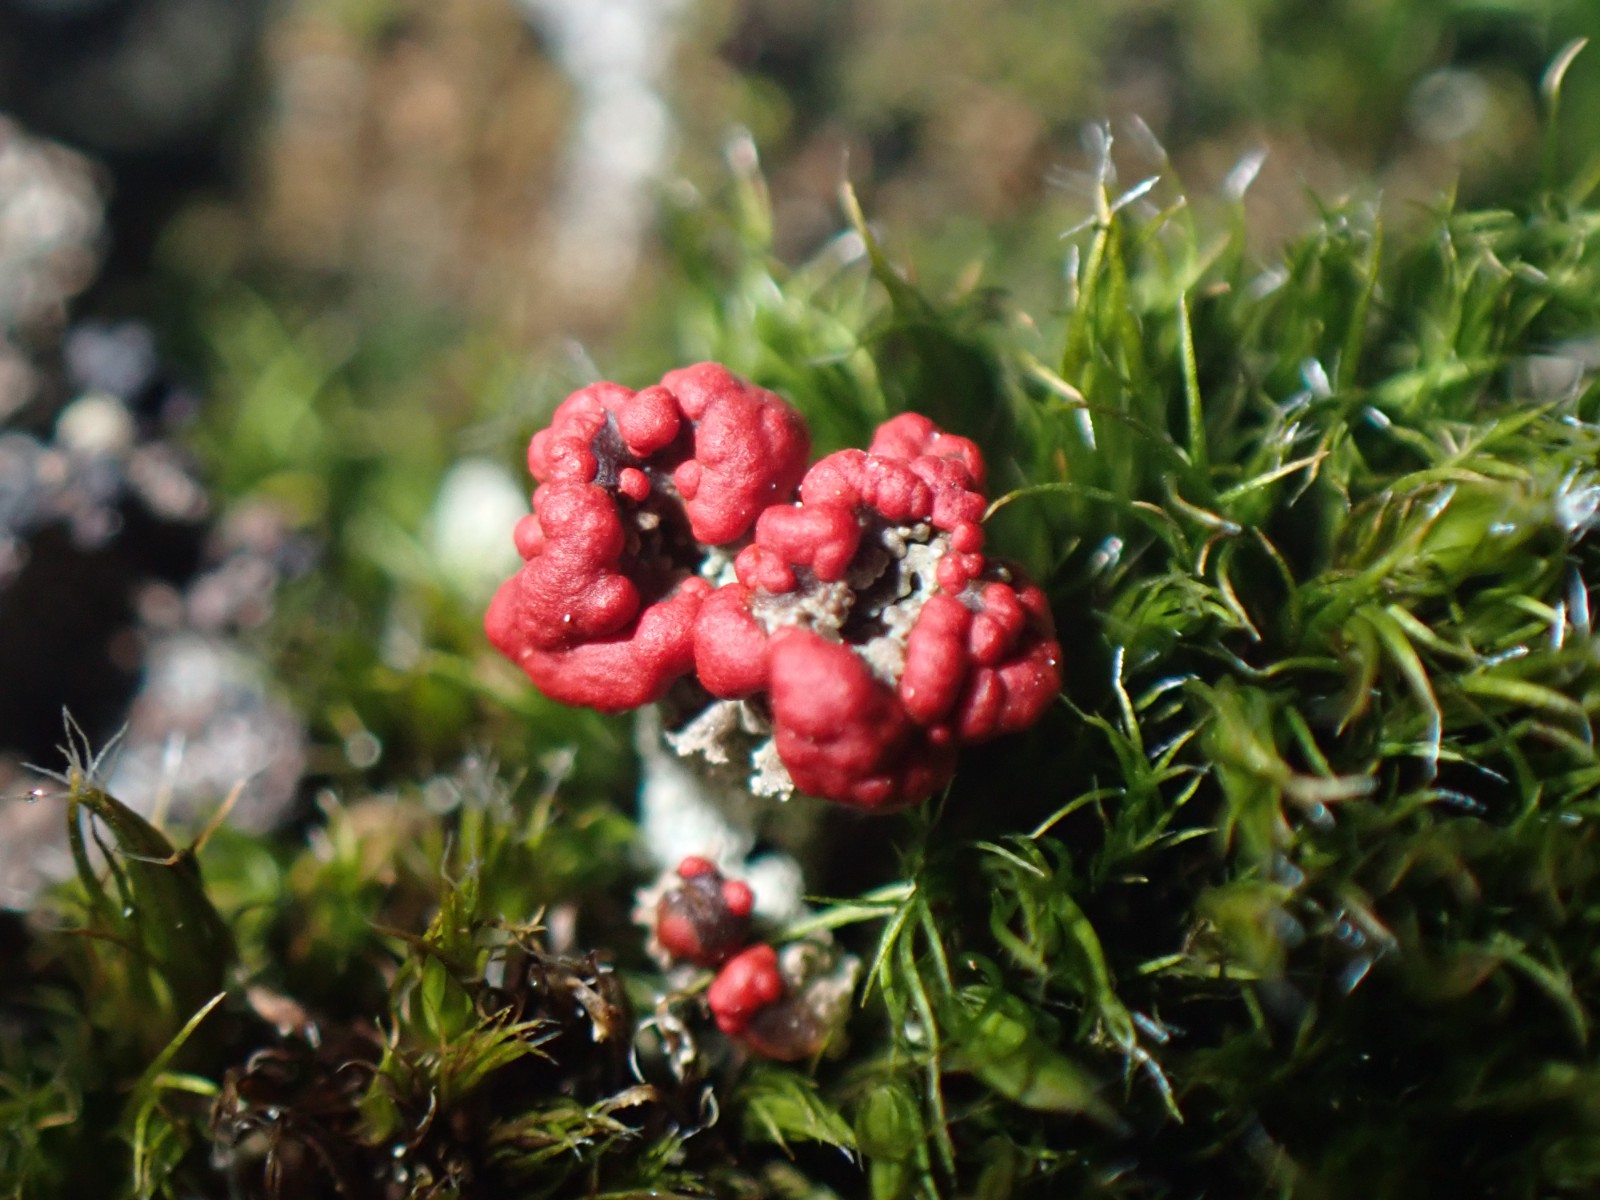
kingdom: Fungi
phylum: Ascomycota
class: Lecanoromycetes
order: Lecanorales
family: Cladoniaceae
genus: Cladonia
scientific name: Cladonia floerkeana
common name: lakrød bægerlav
